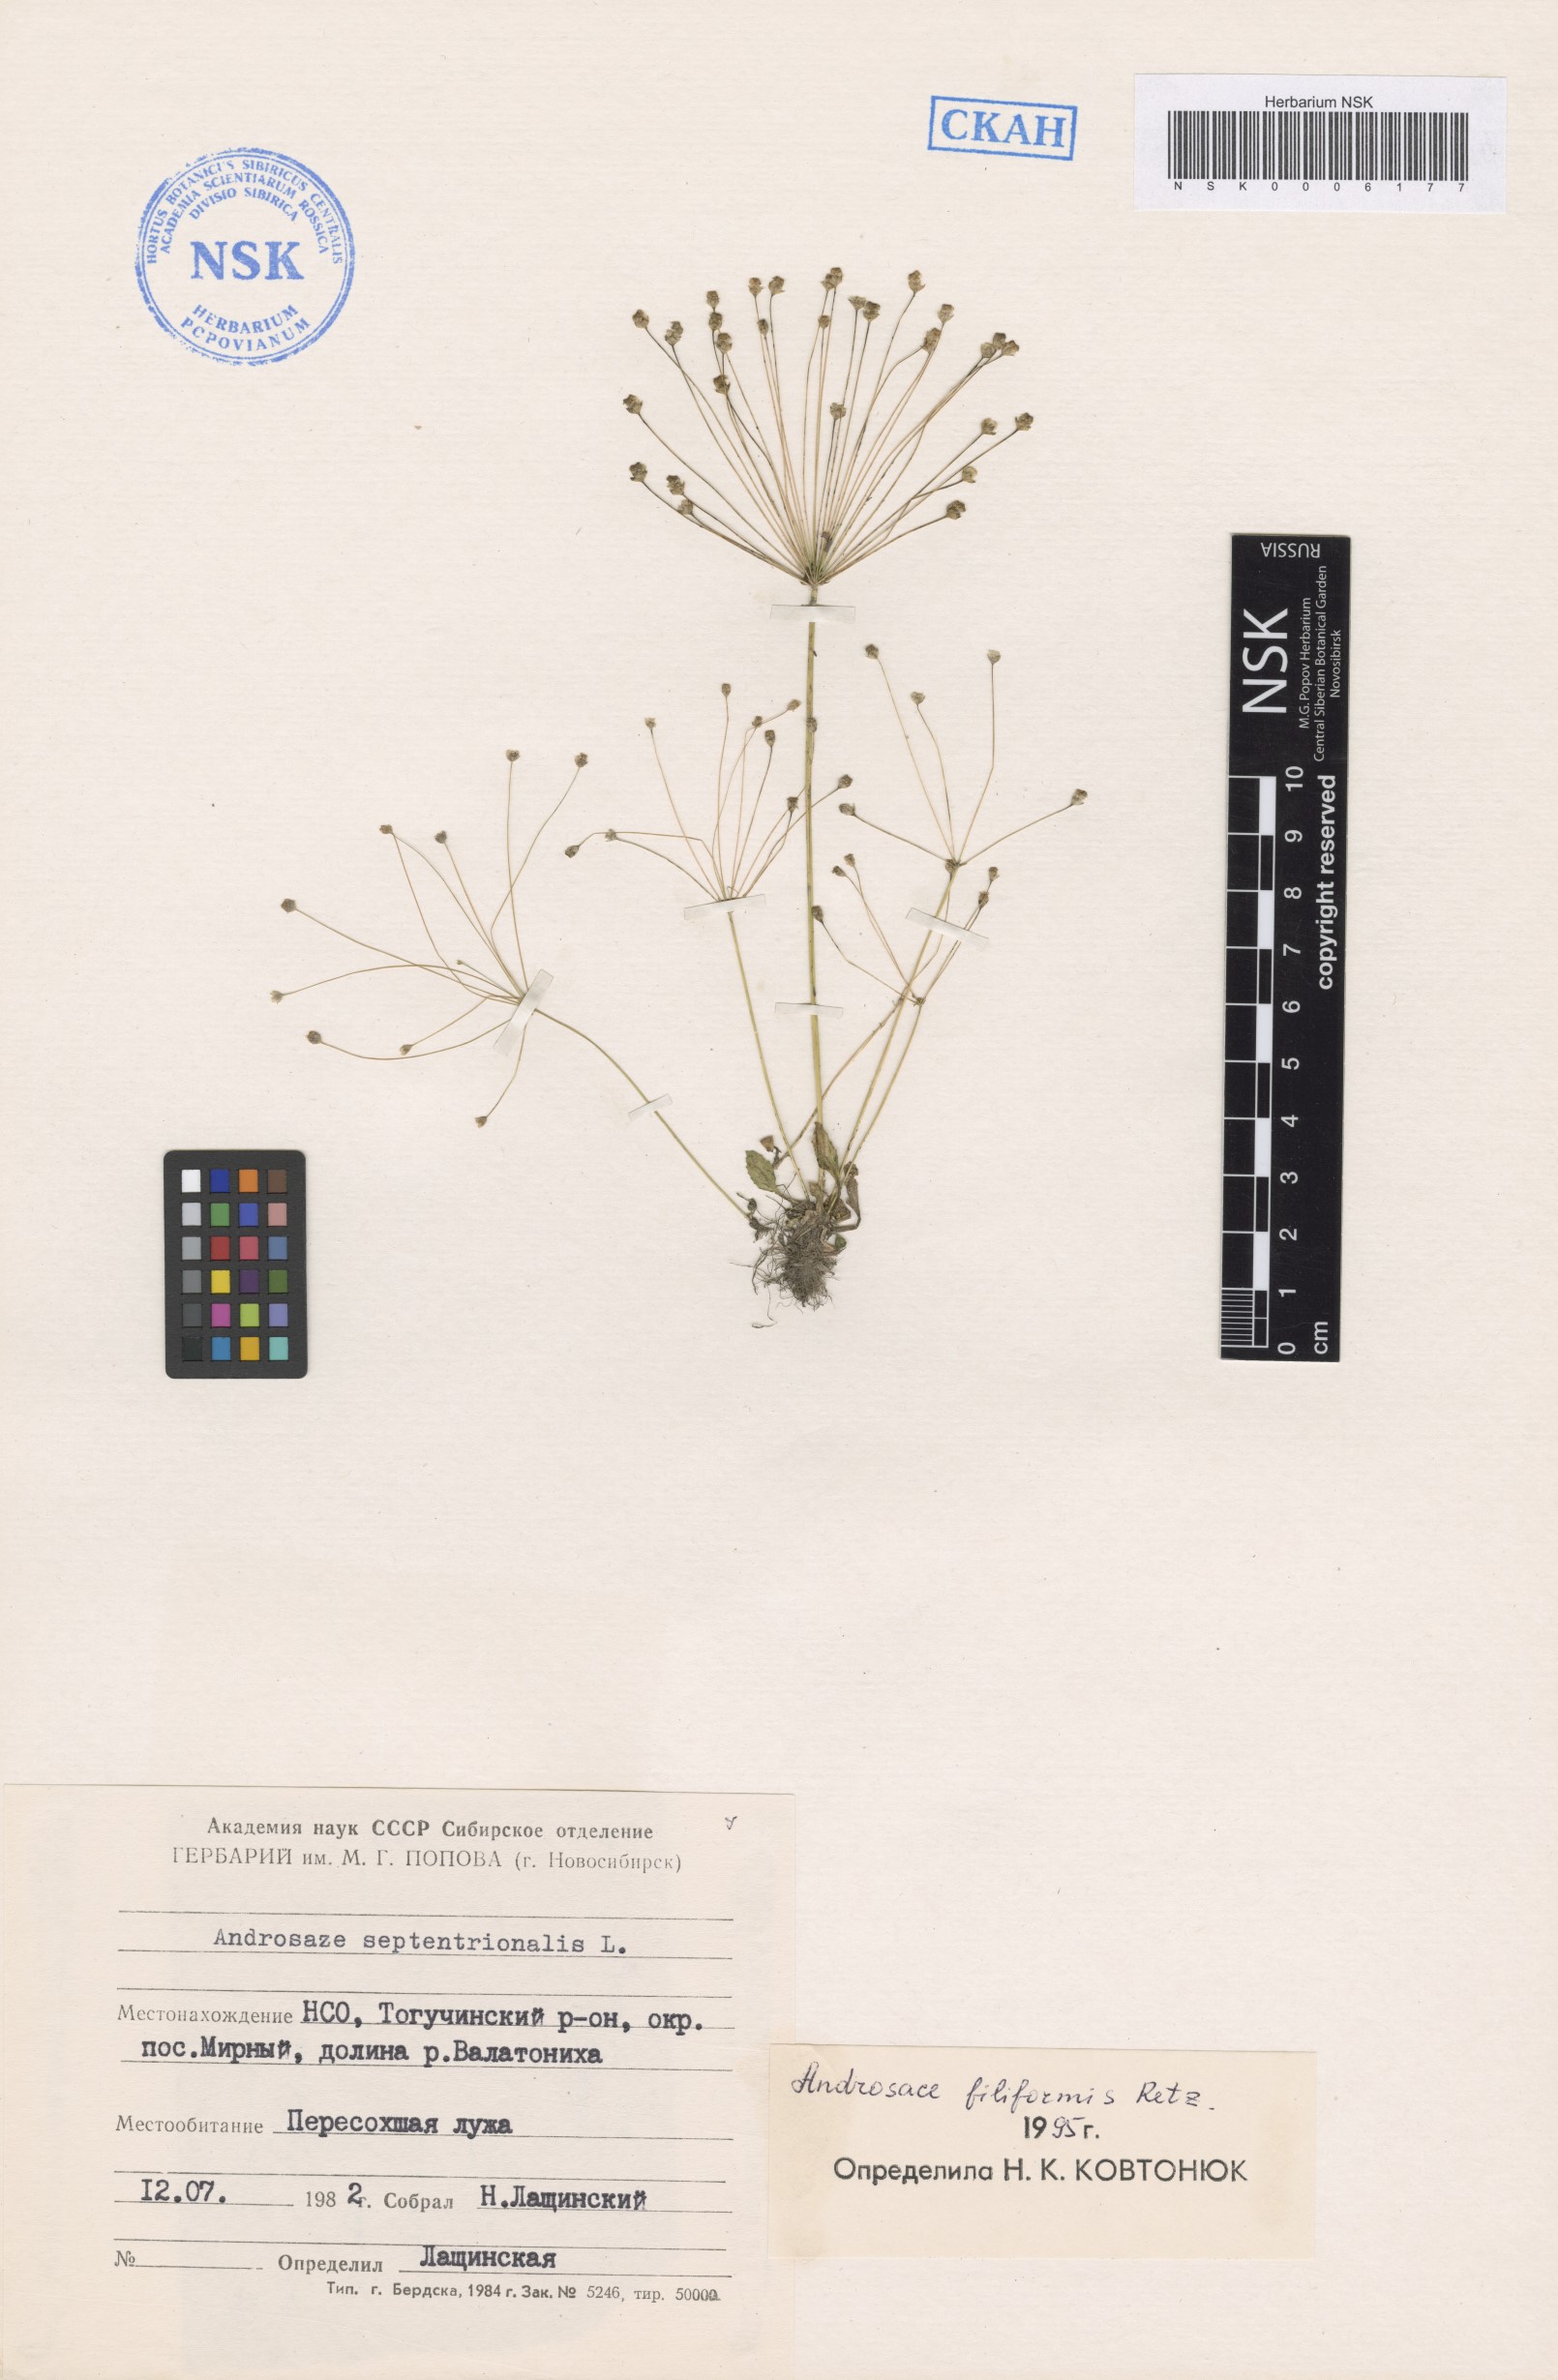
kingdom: Plantae
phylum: Tracheophyta
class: Magnoliopsida
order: Ericales
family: Primulaceae
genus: Androsace
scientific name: Androsace filiformis
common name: Filiform rock jasmine
